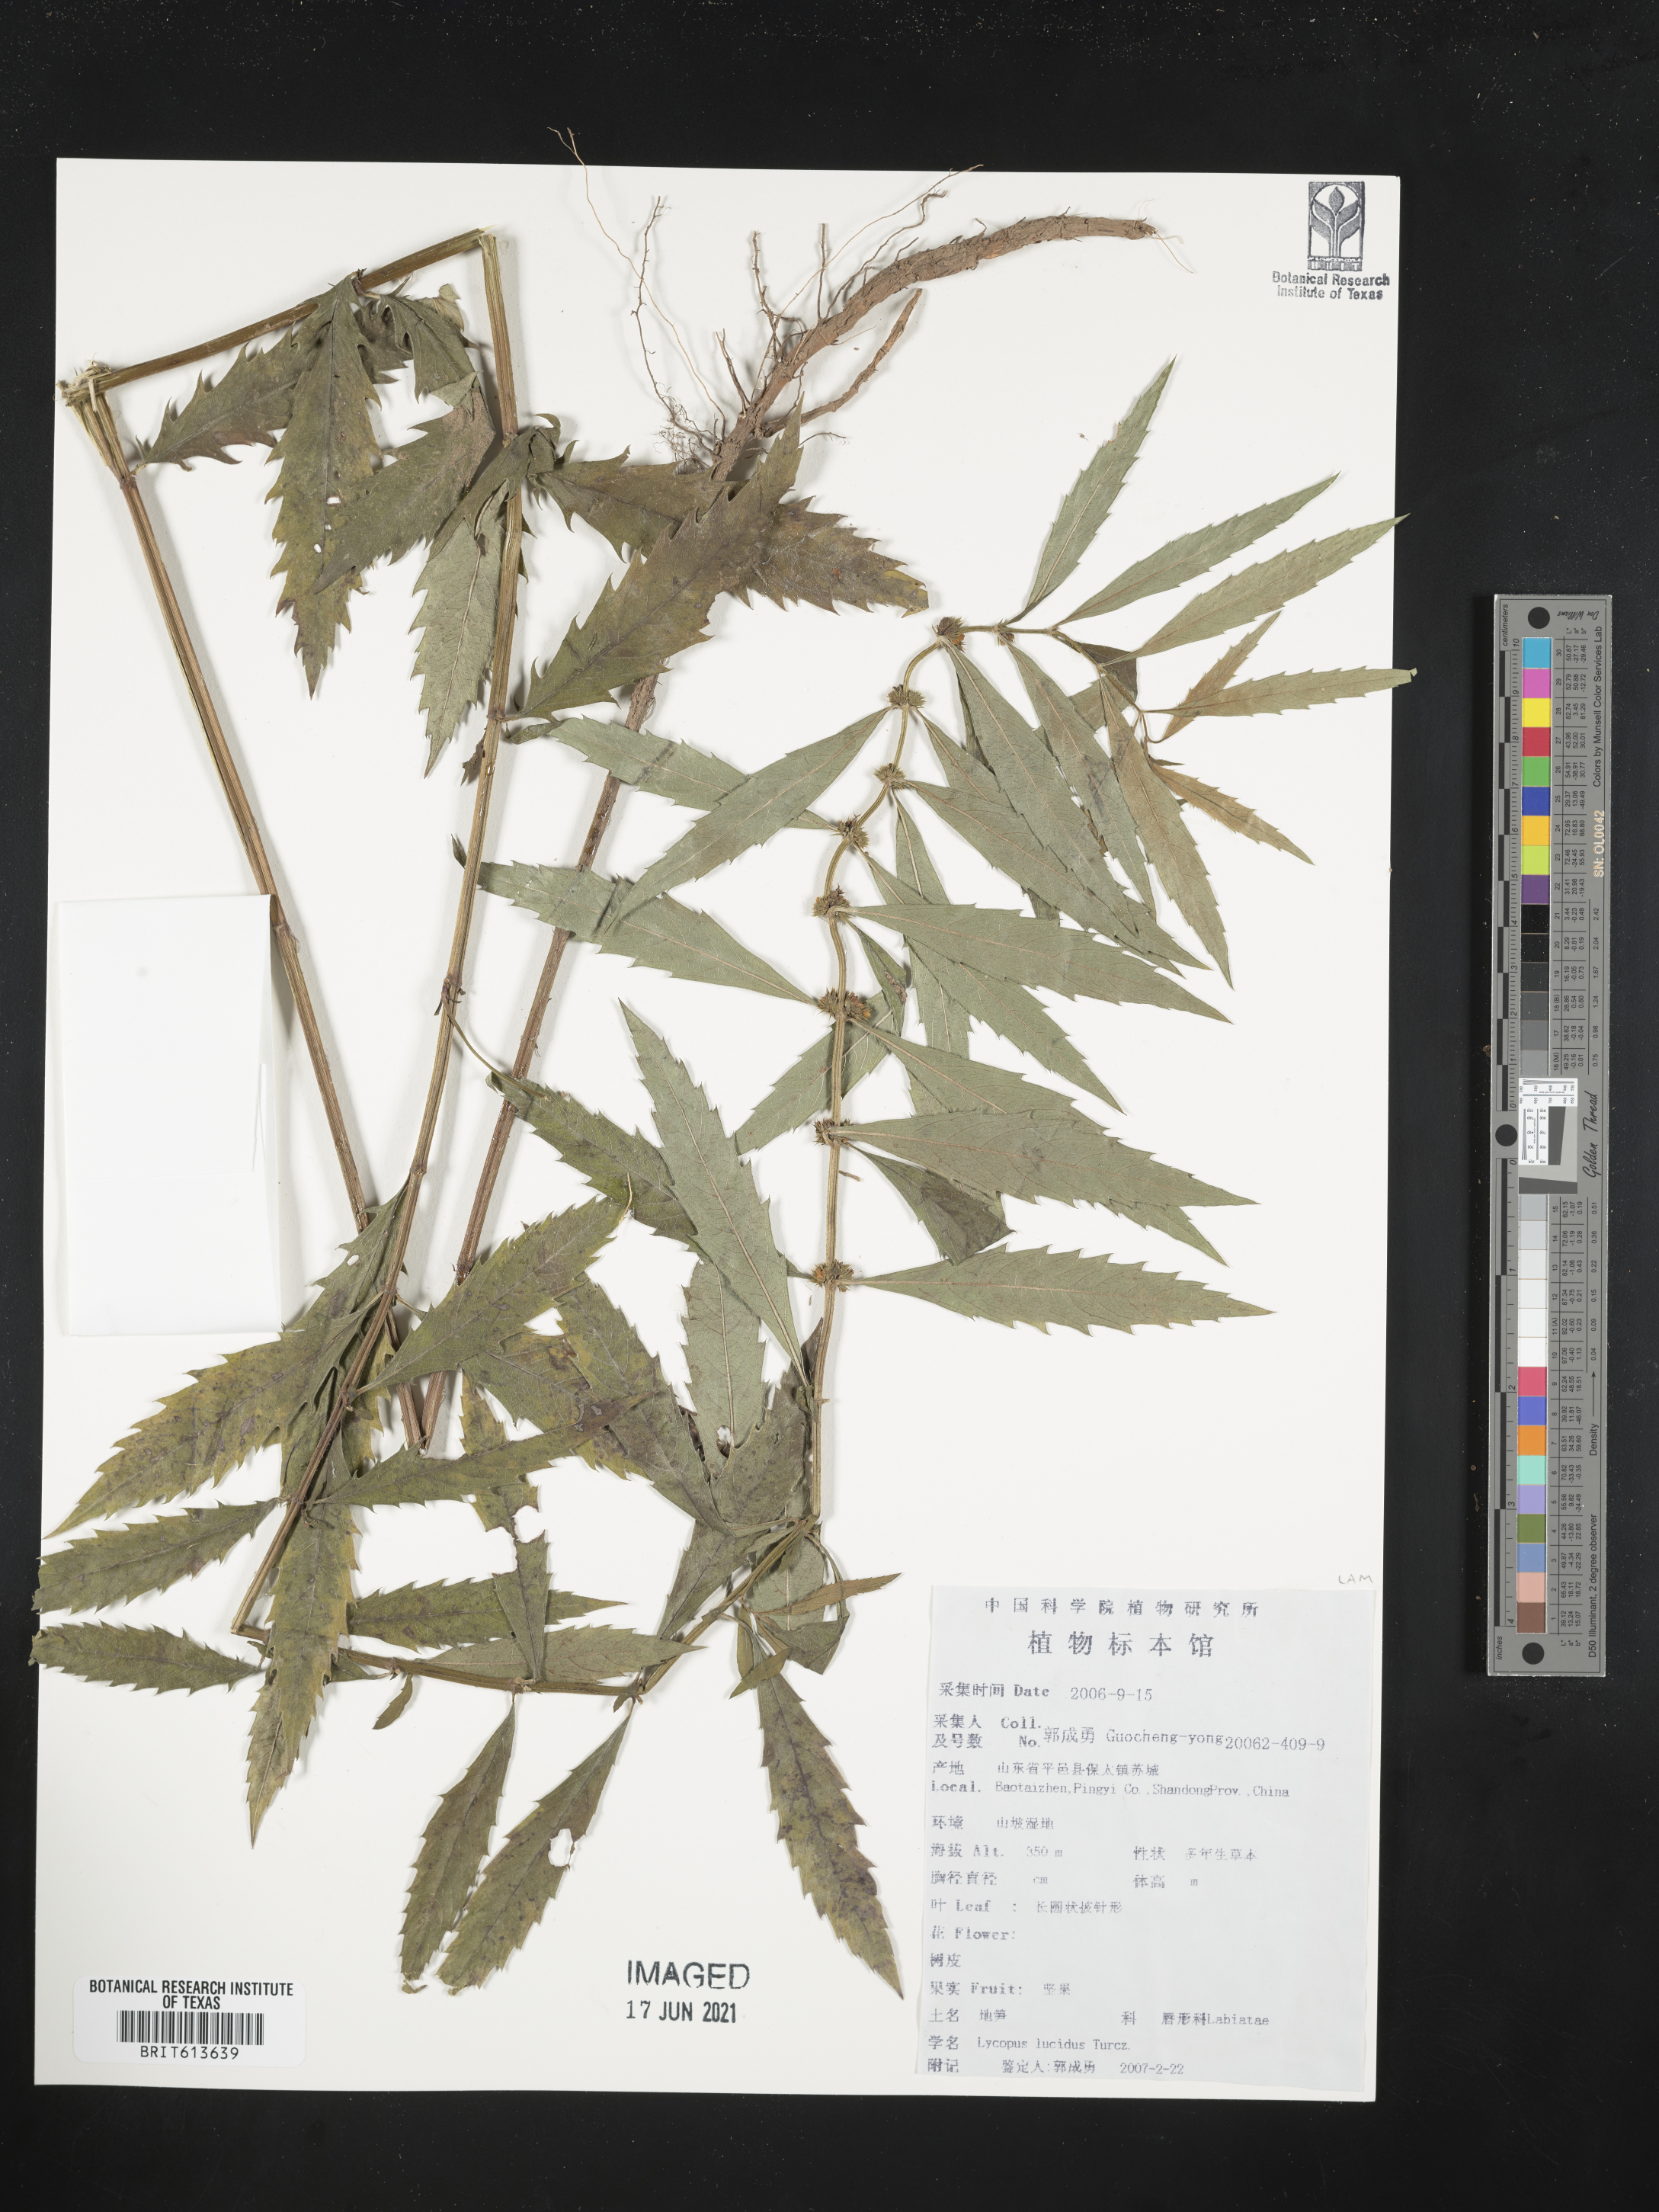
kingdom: Plantae
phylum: Tracheophyta
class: Magnoliopsida
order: Lamiales
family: Lamiaceae
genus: Lycopus
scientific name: Lycopus lucidus
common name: Shiny bugleweed
